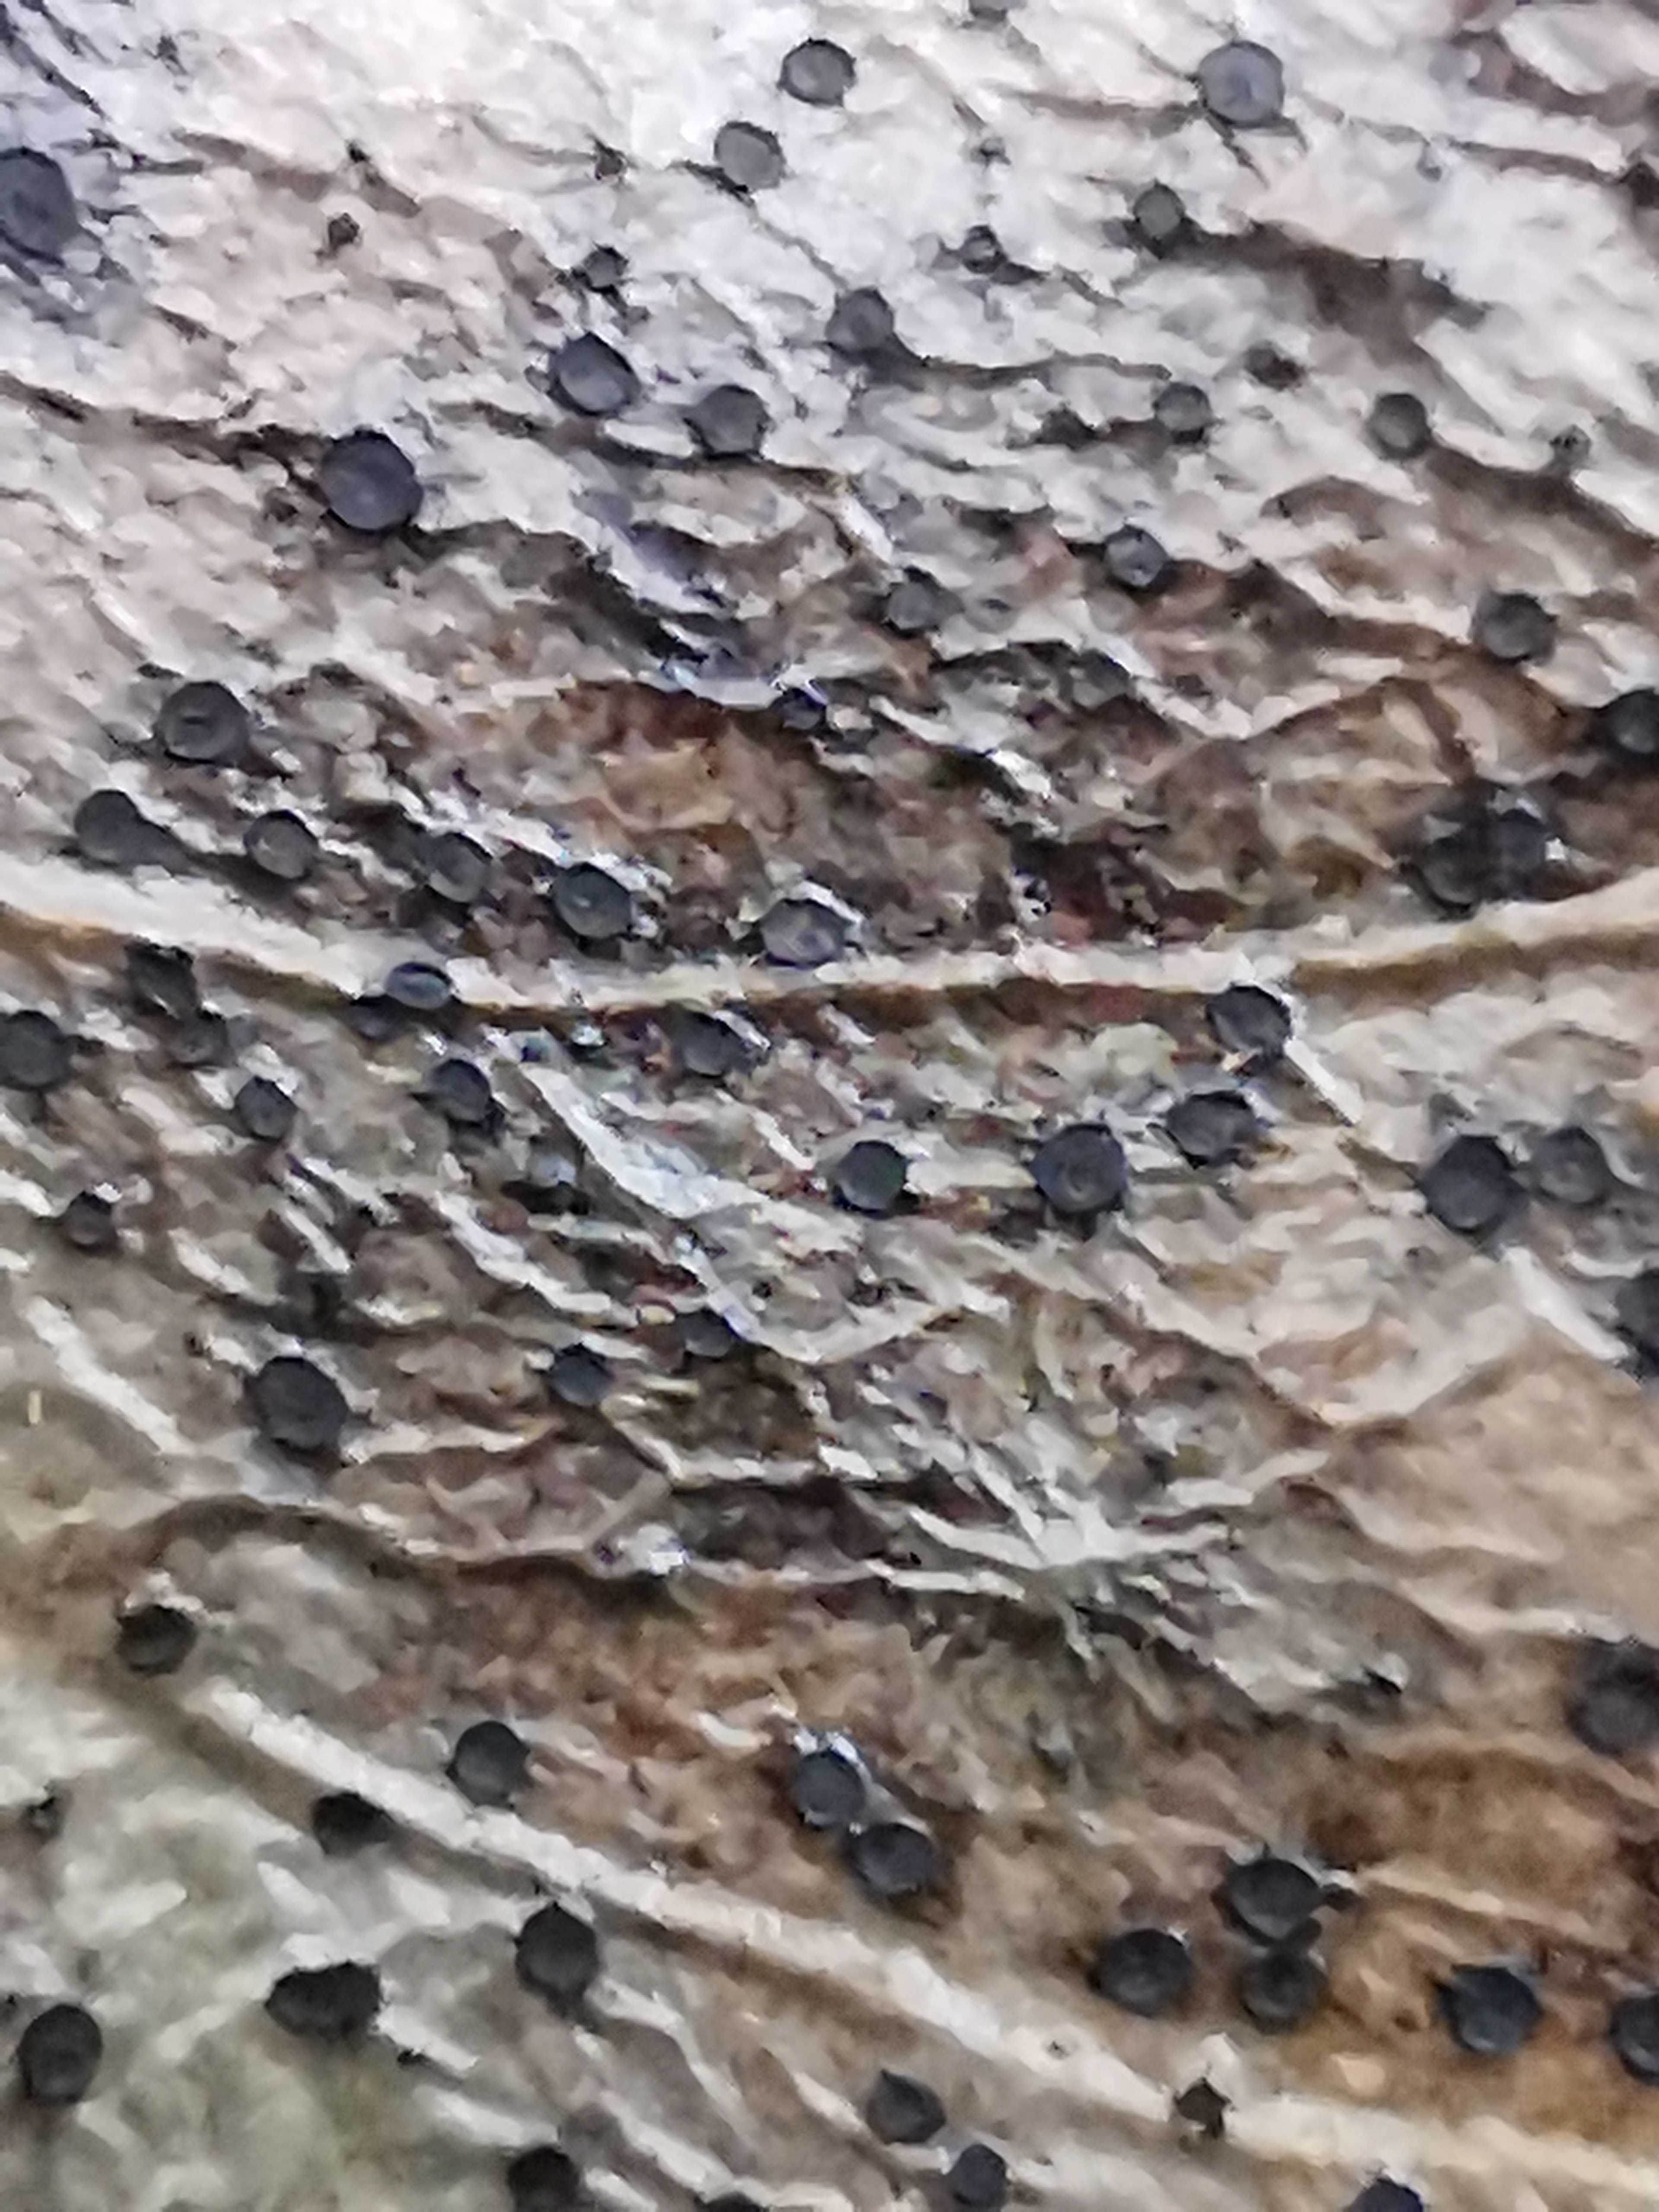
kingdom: Fungi
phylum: Ascomycota
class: Leotiomycetes
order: Helotiales
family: Cenangiaceae
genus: Trochila
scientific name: Trochila ilicina
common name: kristtorn-lågskive
